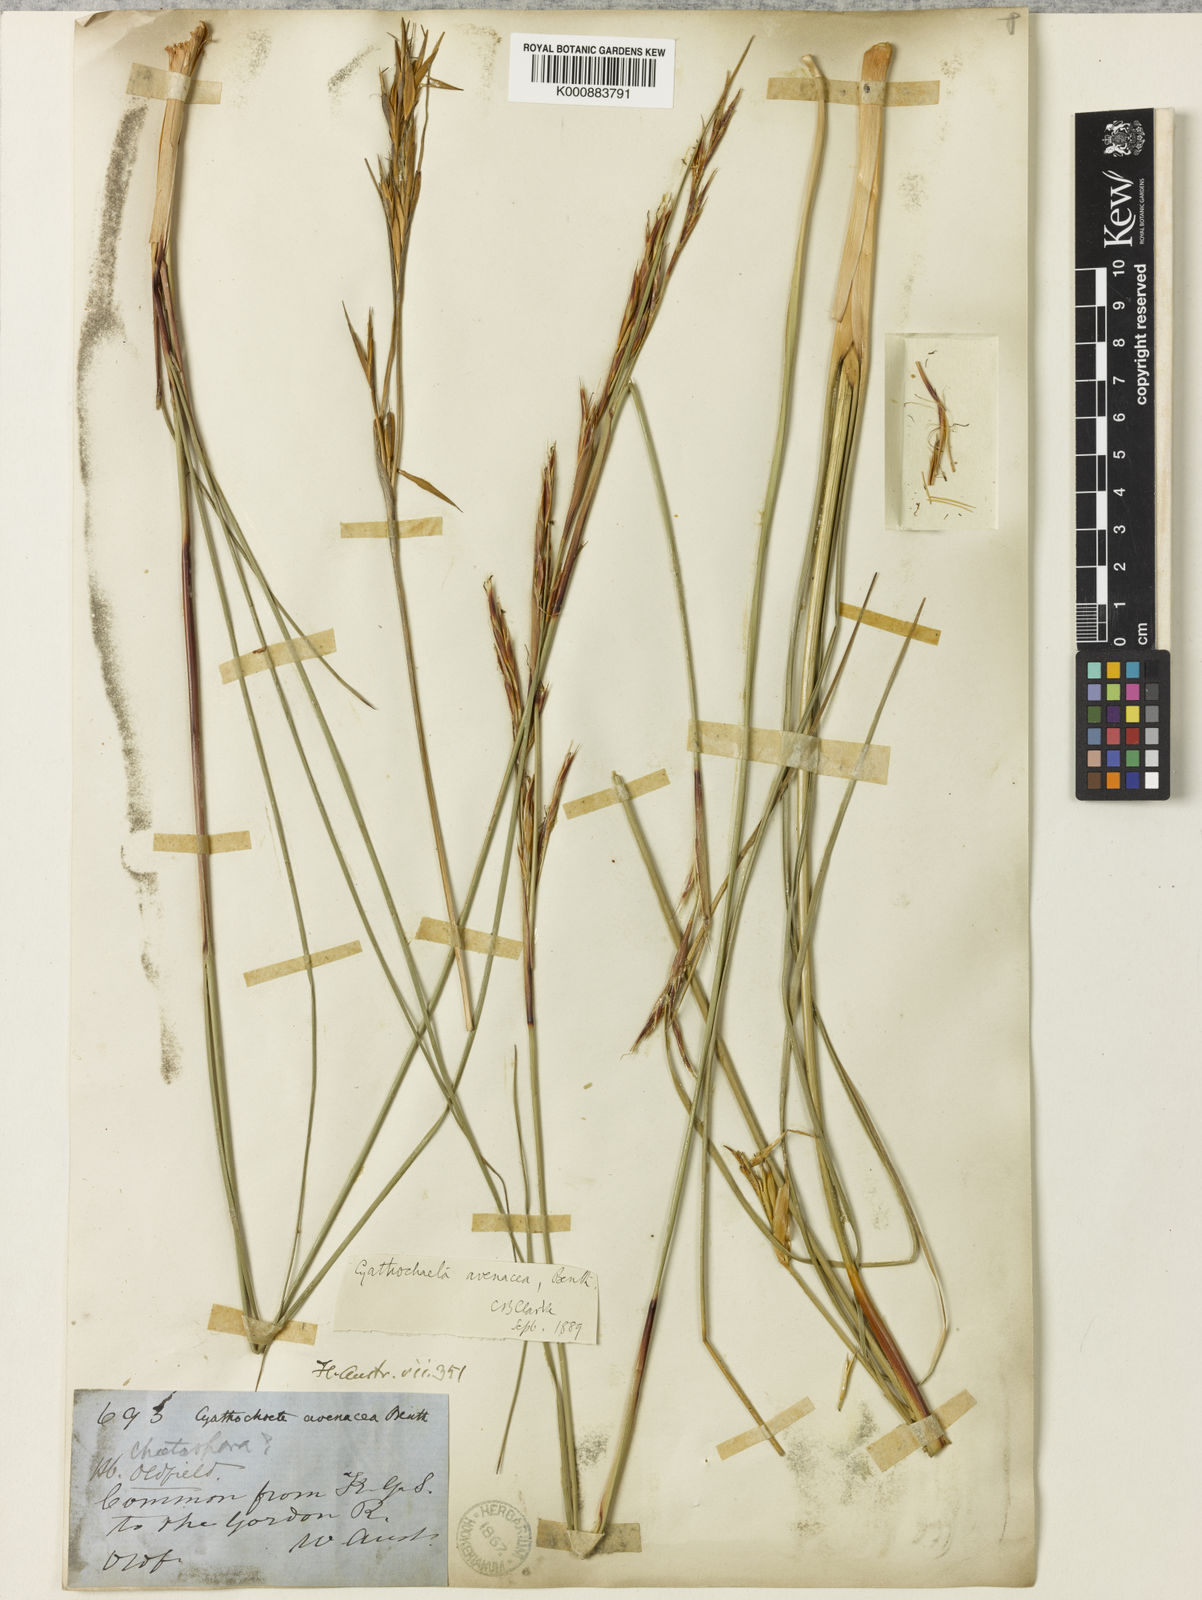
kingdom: Plantae
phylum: Tracheophyta
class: Liliopsida
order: Poales
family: Cyperaceae
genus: Cyathochaeta
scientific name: Cyathochaeta avenacea
